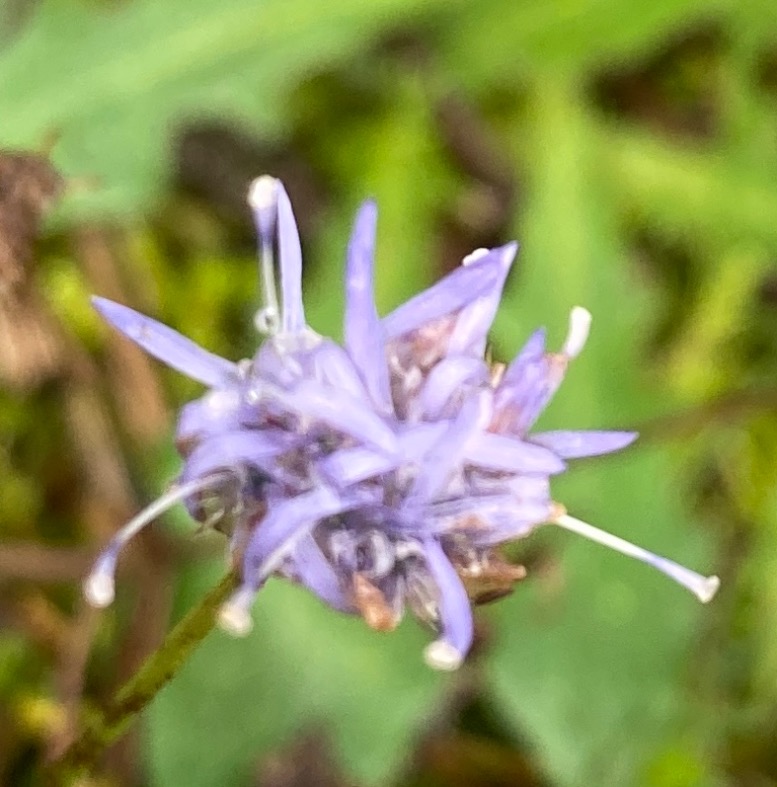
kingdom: Plantae
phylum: Tracheophyta
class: Magnoliopsida
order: Asterales
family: Campanulaceae
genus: Jasione
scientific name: Jasione montana
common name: Blåmunke
